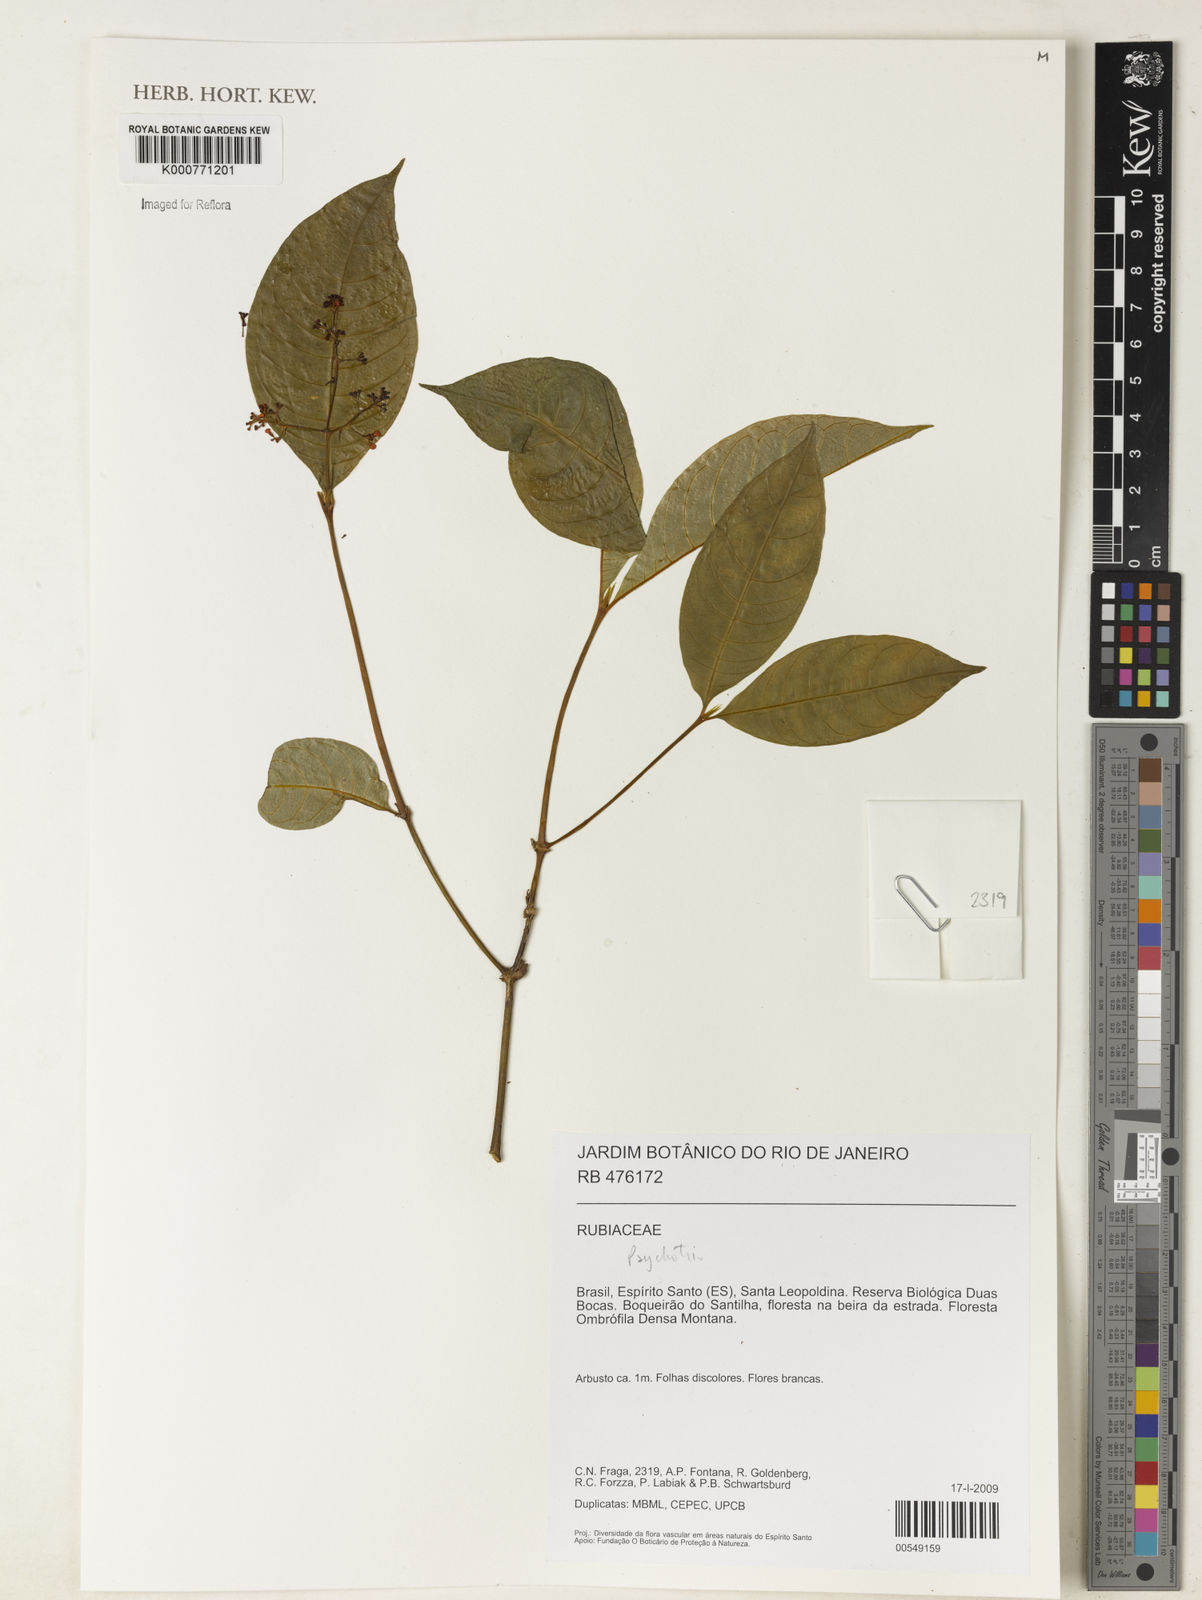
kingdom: Plantae
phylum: Tracheophyta
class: Magnoliopsida
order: Gentianales
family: Rubiaceae
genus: Psychotria
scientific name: Psychotria
